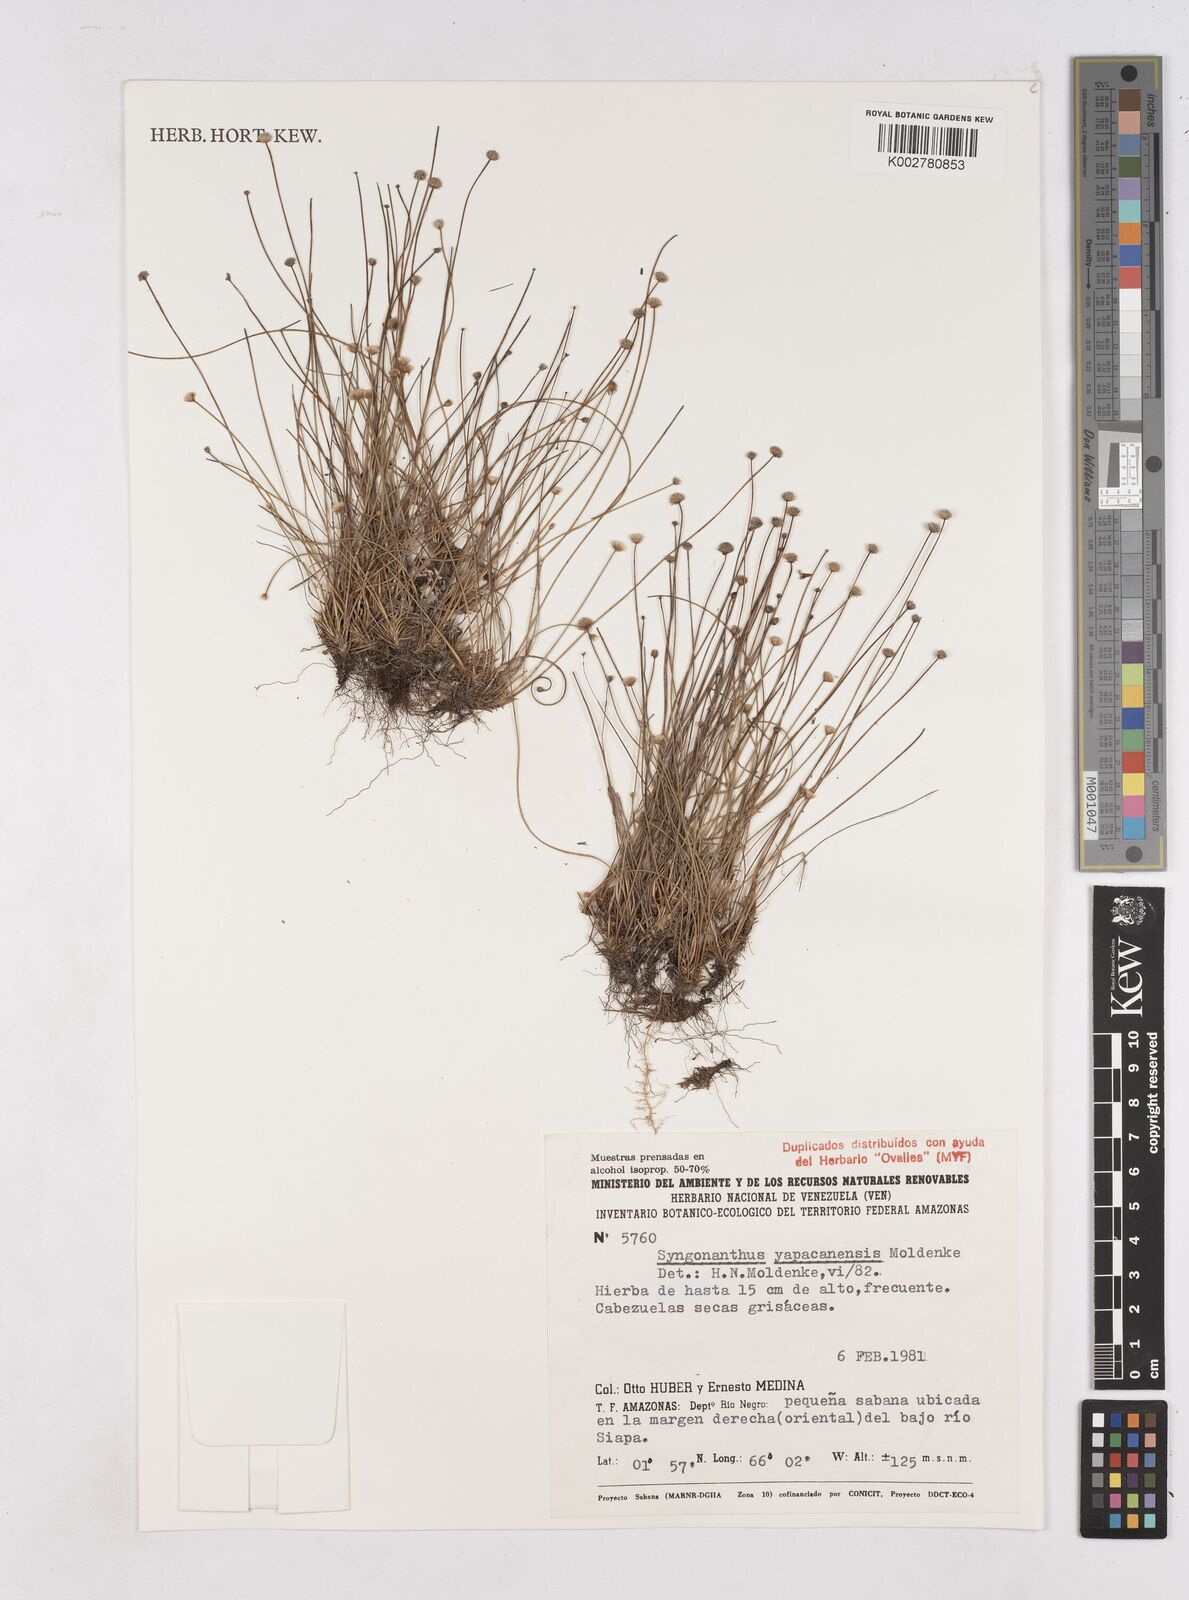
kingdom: Plantae
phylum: Tracheophyta
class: Liliopsida
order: Poales
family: Eriocaulaceae
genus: Paepalanthus
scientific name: Paepalanthus yapacanensis
